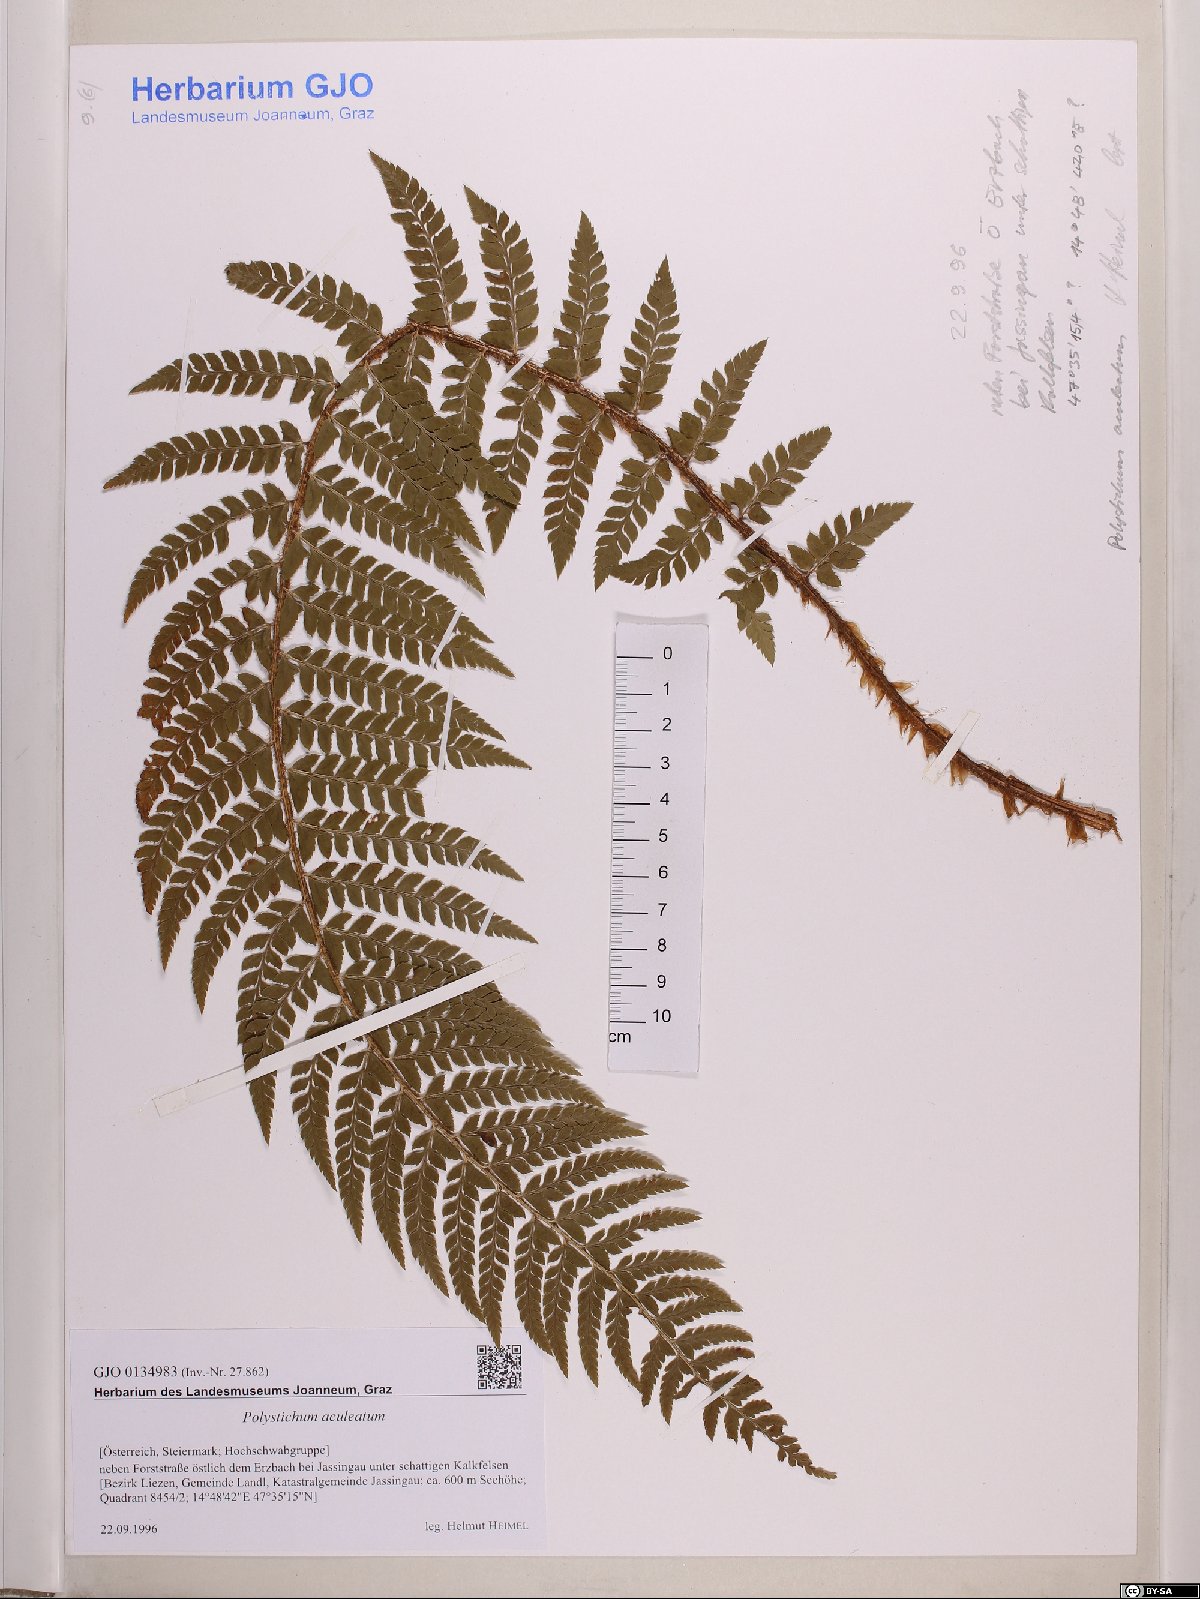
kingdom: Plantae
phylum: Tracheophyta
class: Polypodiopsida
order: Polypodiales
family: Dryopteridaceae
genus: Polystichum
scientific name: Polystichum aculeatum
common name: Hard shield-fern
